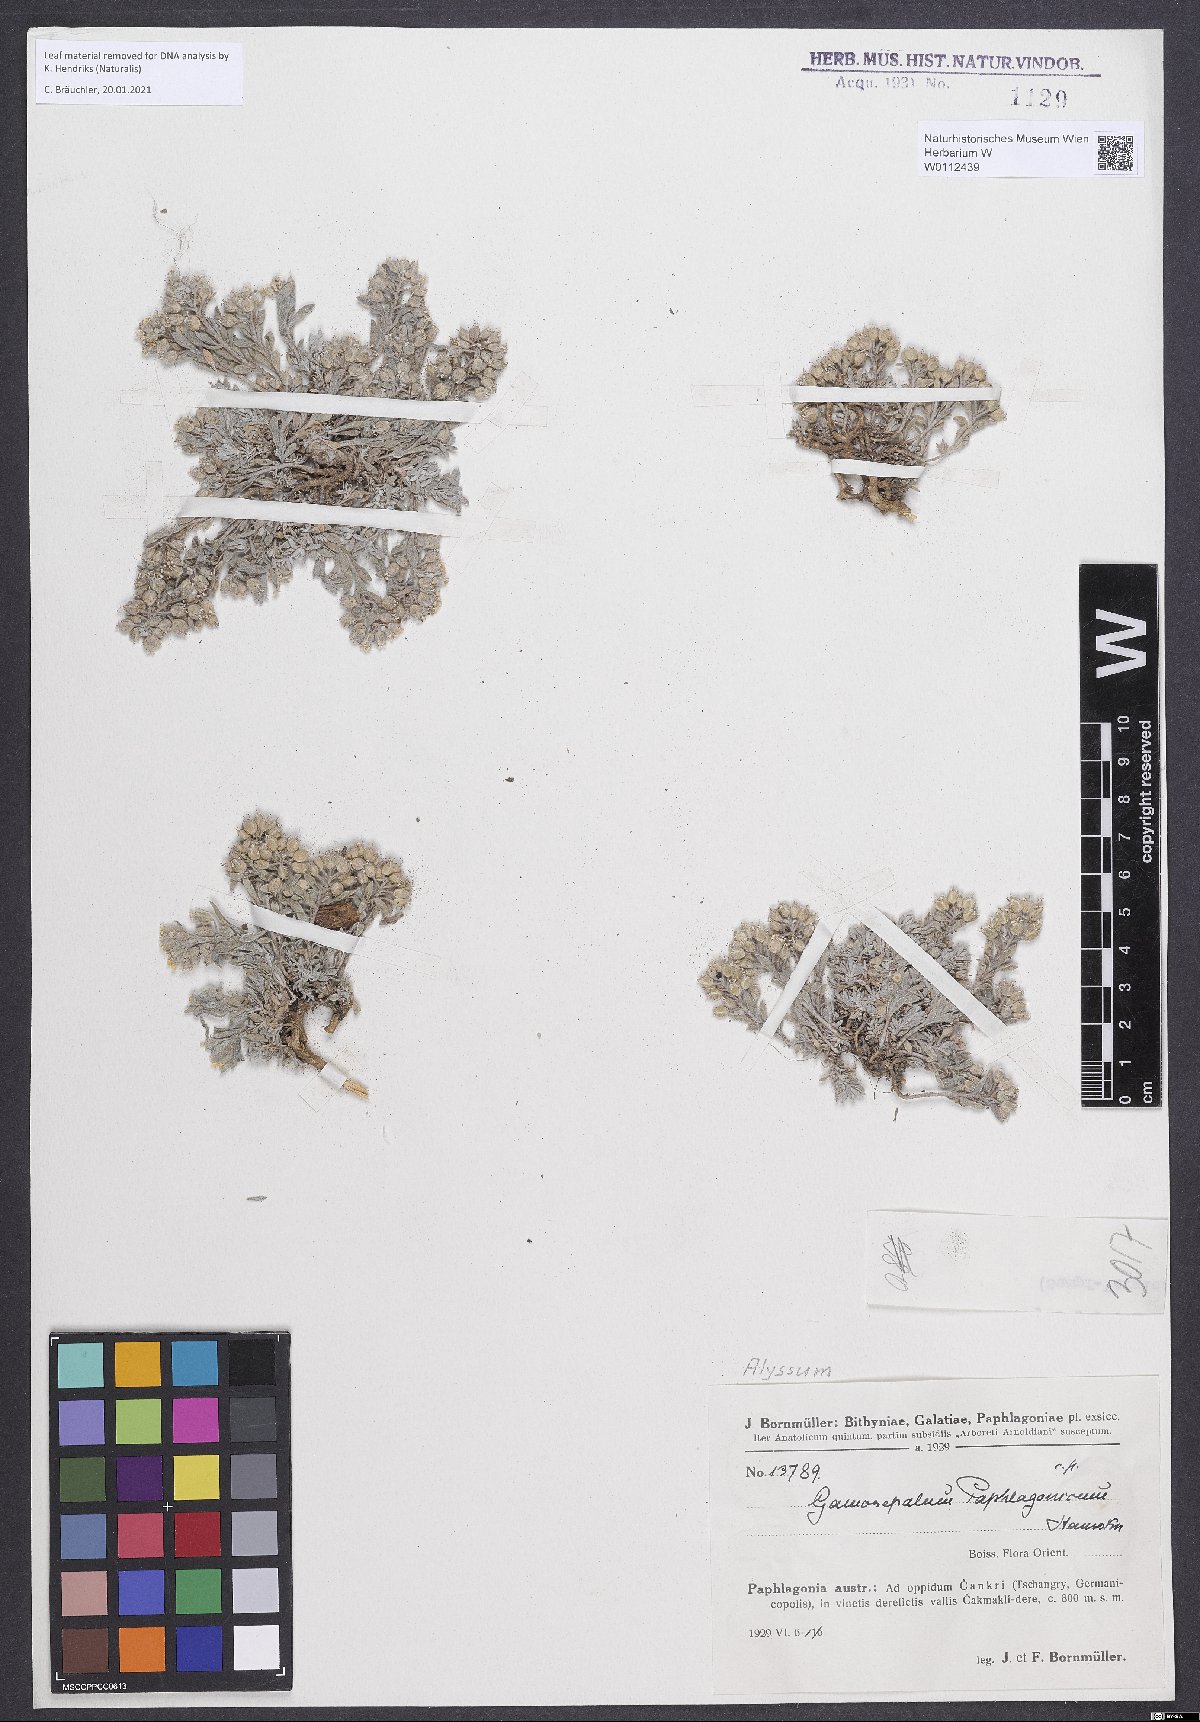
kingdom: Plantae
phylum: Tracheophyta
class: Magnoliopsida
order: Brassicales
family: Brassicaceae
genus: Alyssum
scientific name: Alyssum paphlagonicum
